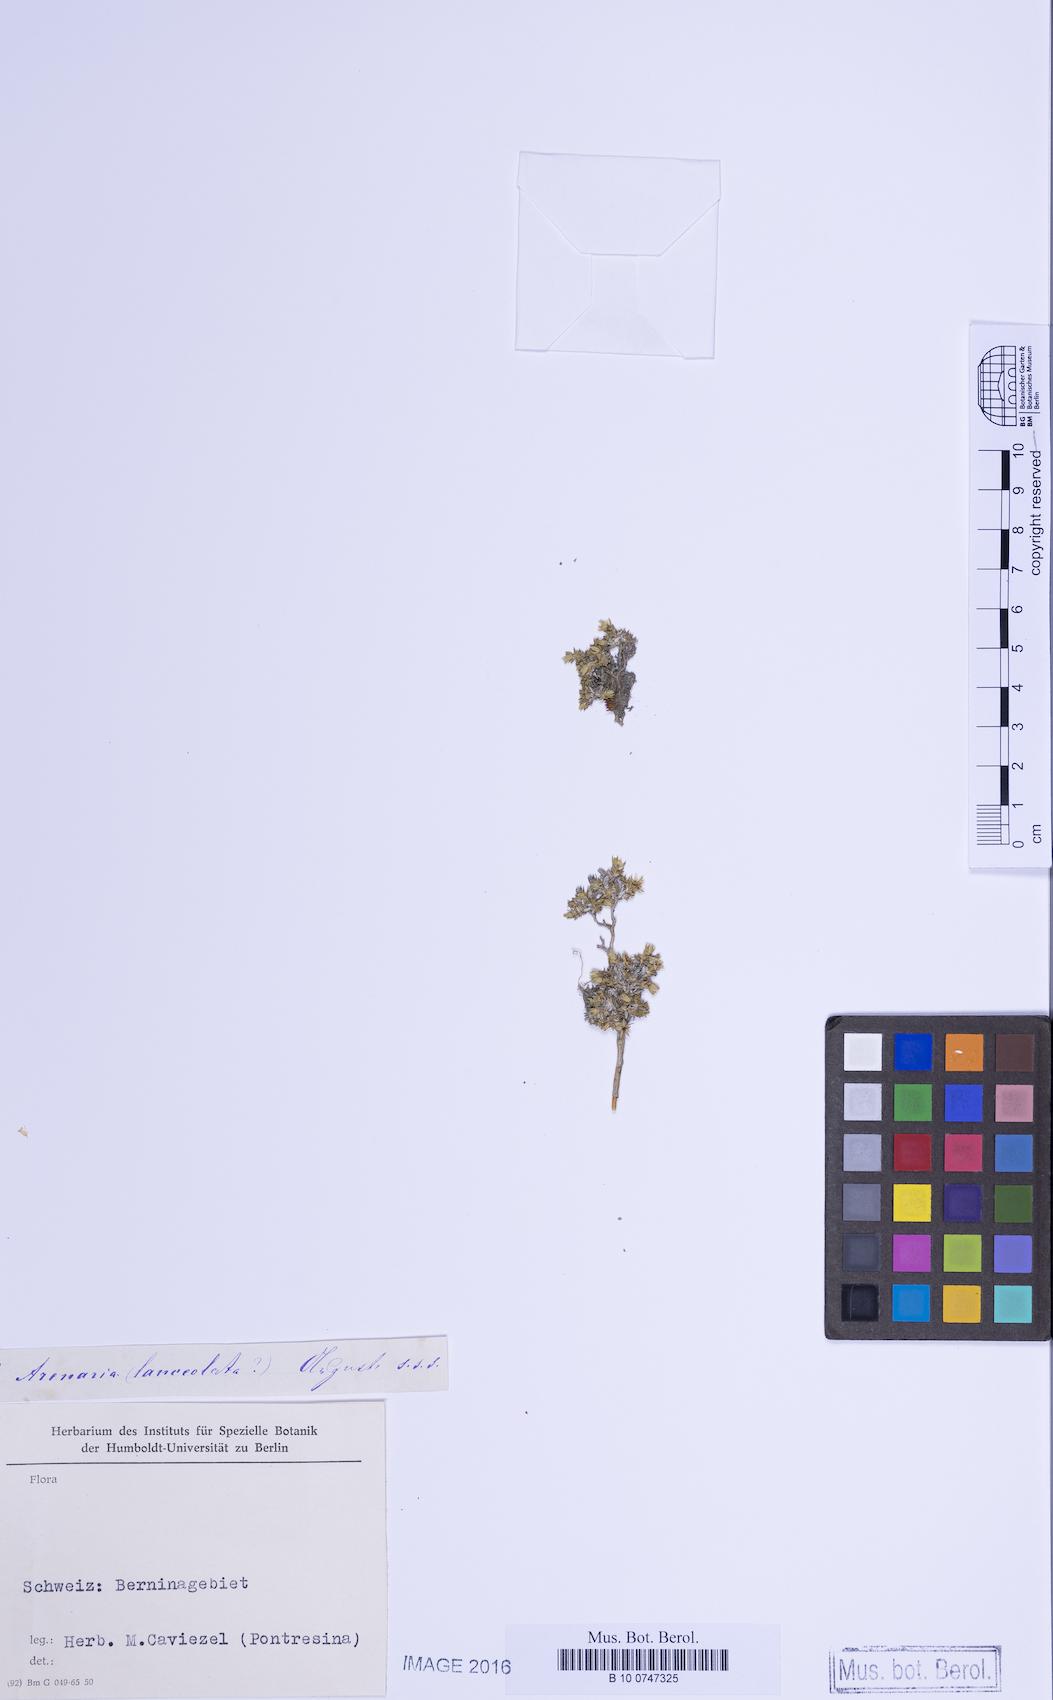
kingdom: Plantae
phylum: Tracheophyta
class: Magnoliopsida
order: Caryophyllales
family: Caryophyllaceae
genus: Facchinia
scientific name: Facchinia rupestris
